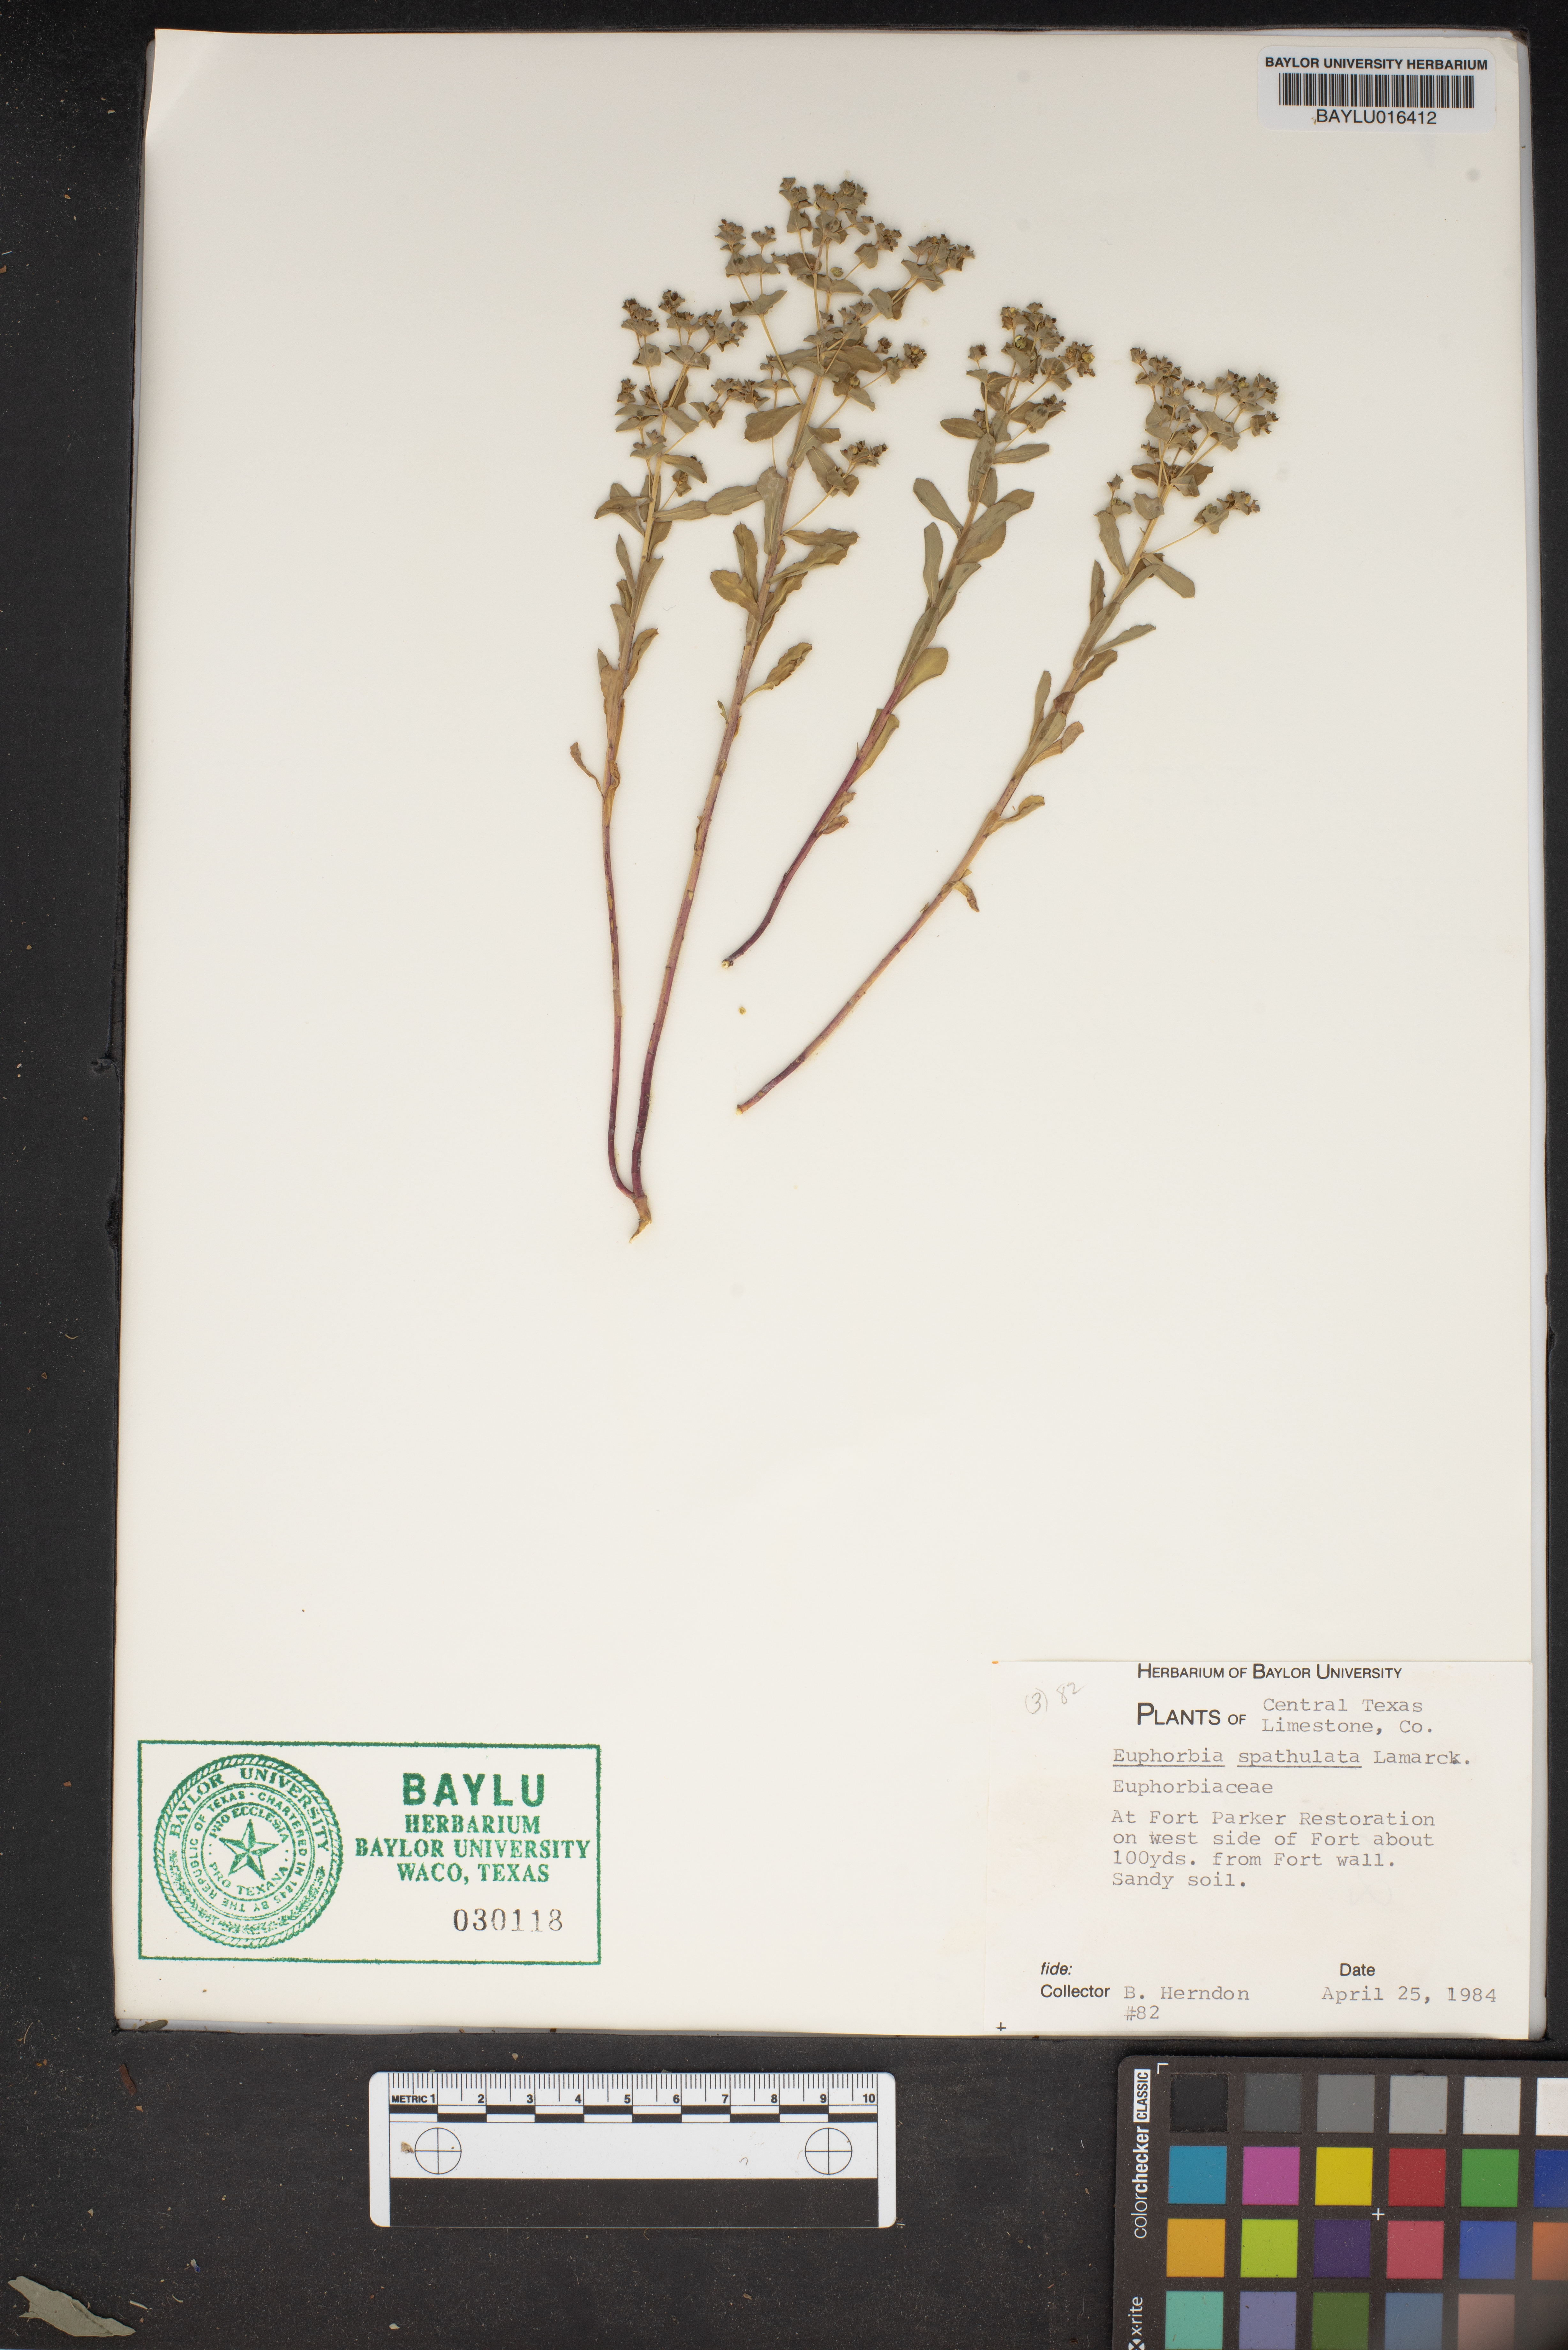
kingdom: Plantae
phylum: Tracheophyta
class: Magnoliopsida
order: Malpighiales
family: Euphorbiaceae
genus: Euphorbia
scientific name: Euphorbia spathulata
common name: Blunt spurge
